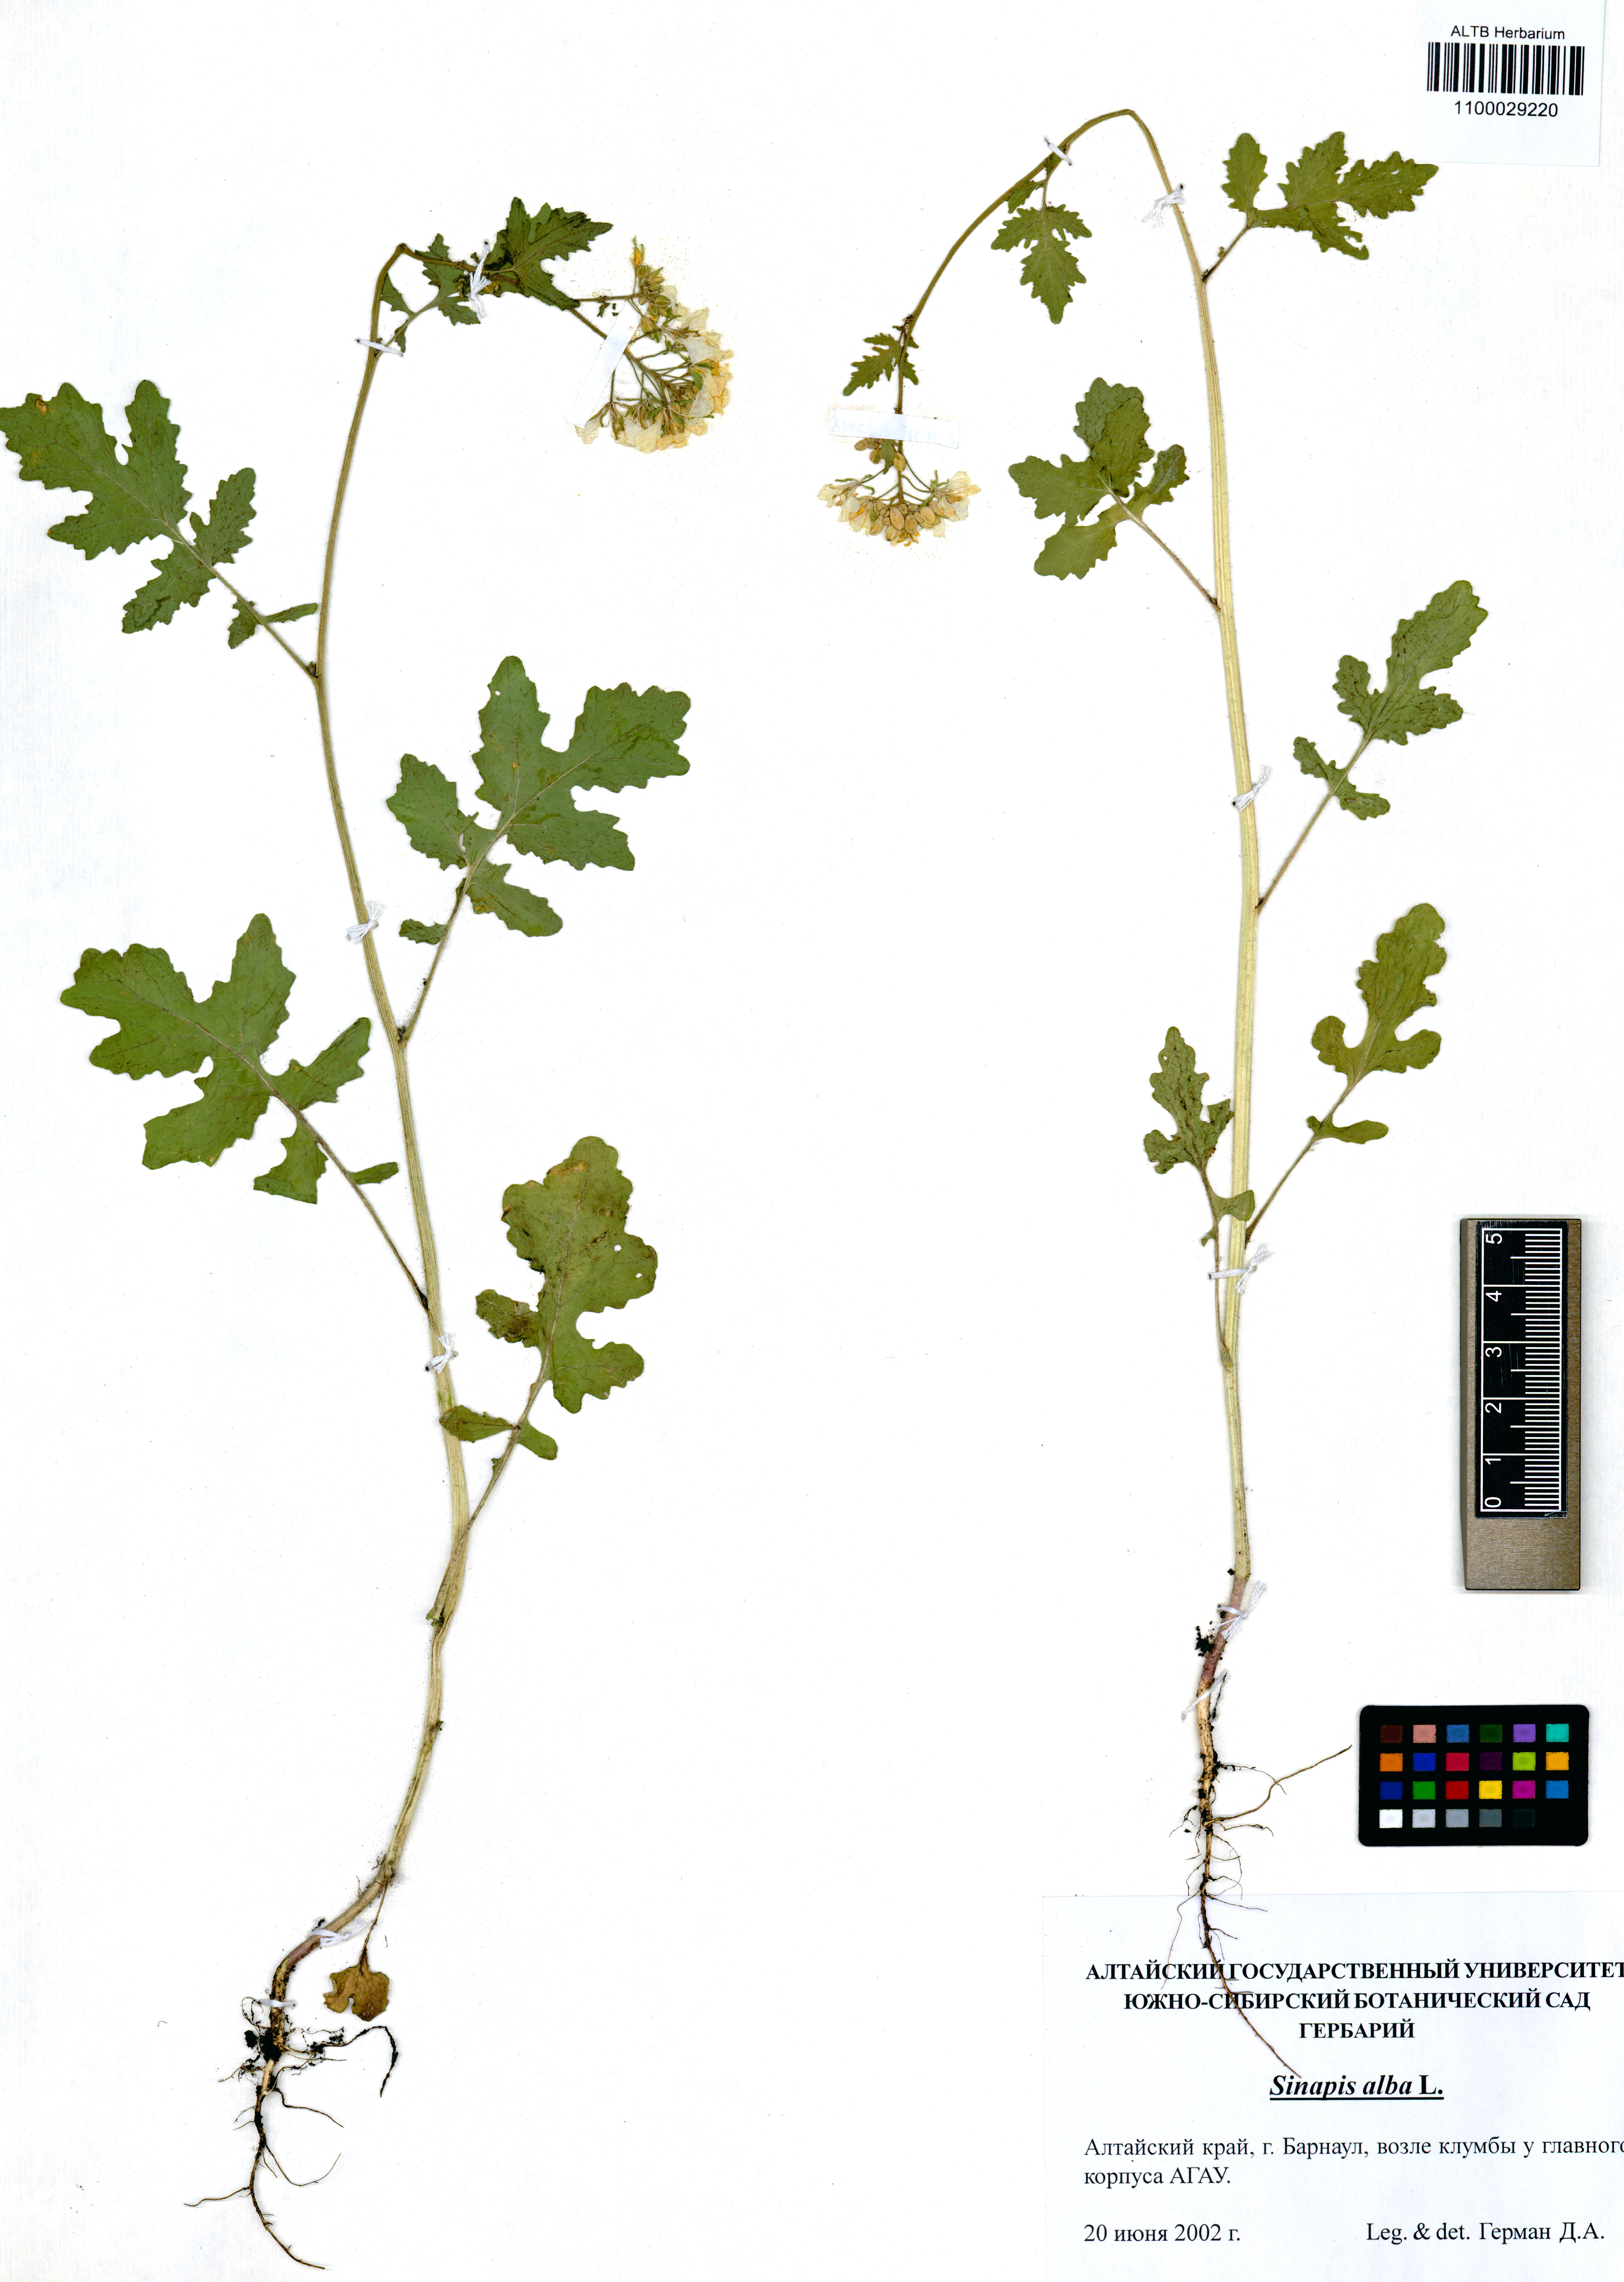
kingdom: Plantae
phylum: Tracheophyta
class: Magnoliopsida
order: Brassicales
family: Brassicaceae
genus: Sinapis
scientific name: Sinapis alba
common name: White mustard
